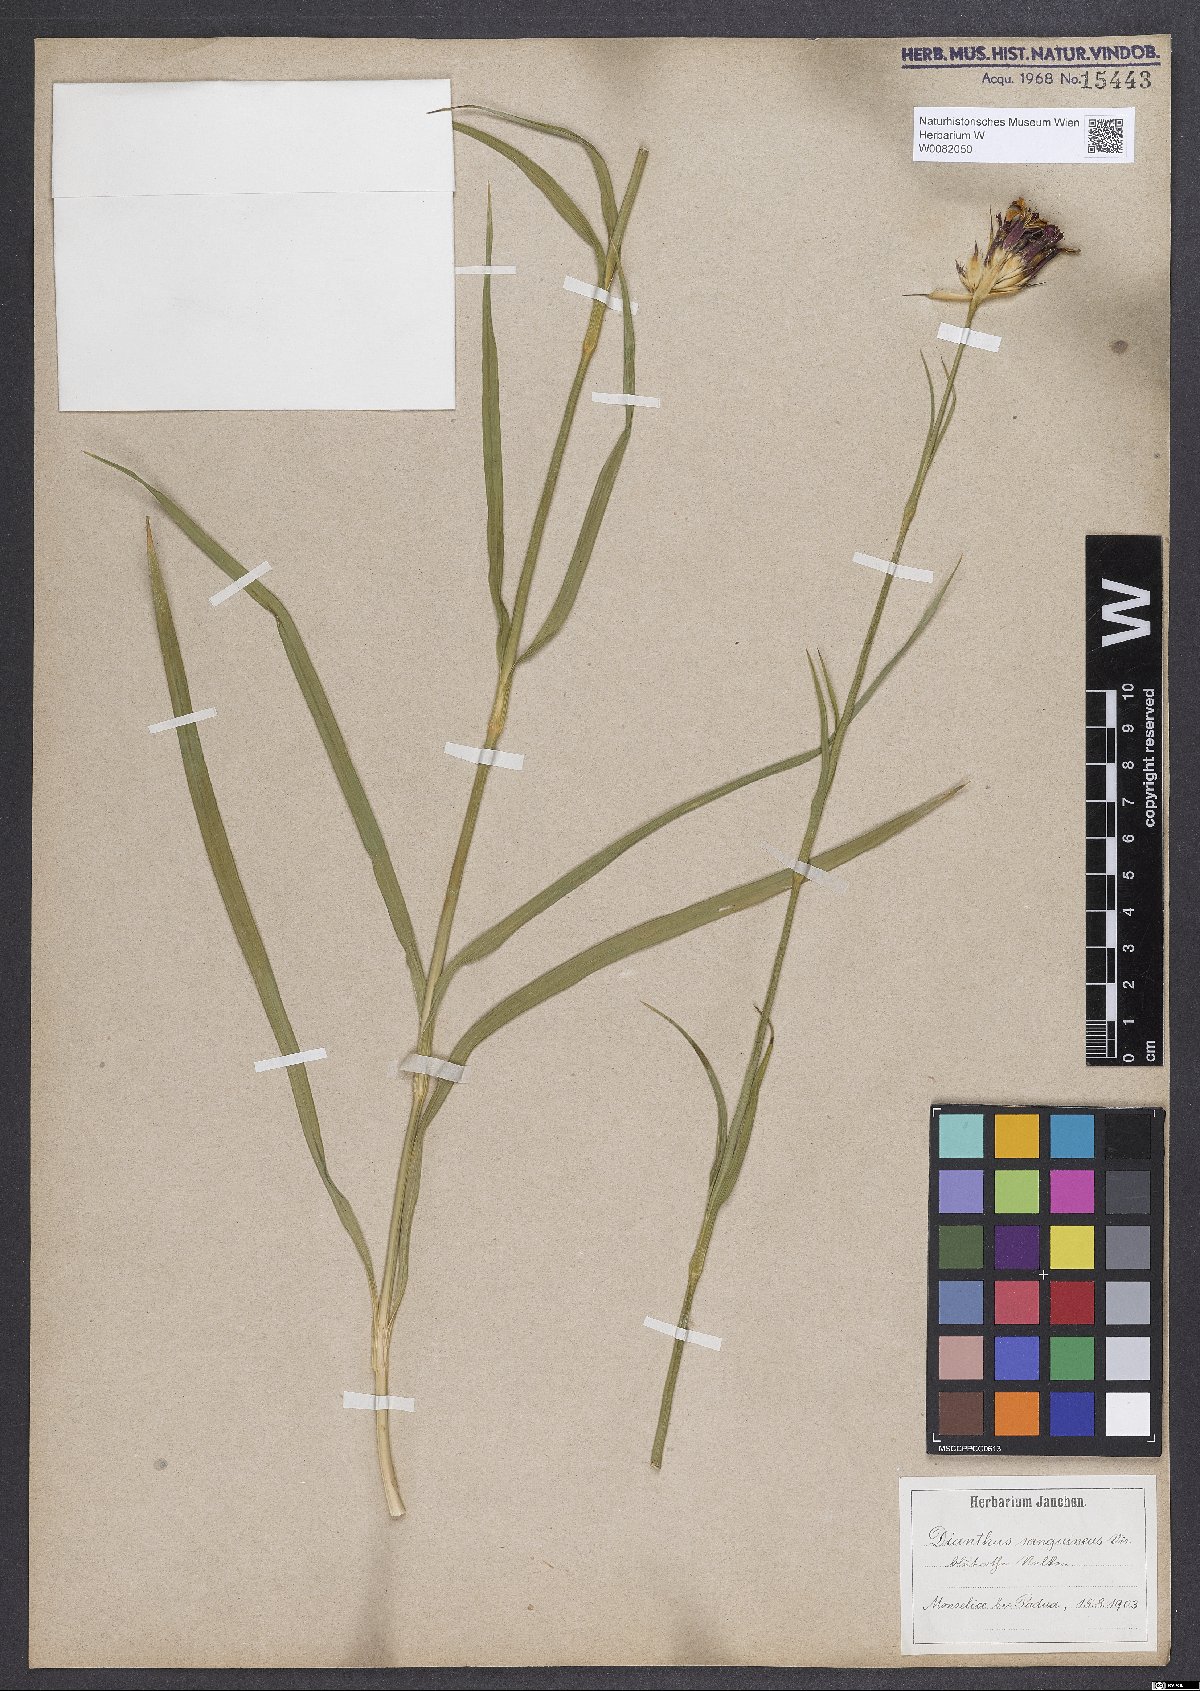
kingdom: Plantae
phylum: Tracheophyta
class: Magnoliopsida
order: Caryophyllales
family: Caryophyllaceae
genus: Dianthus
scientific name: Dianthus carthusianorum
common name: Carthusian pink
